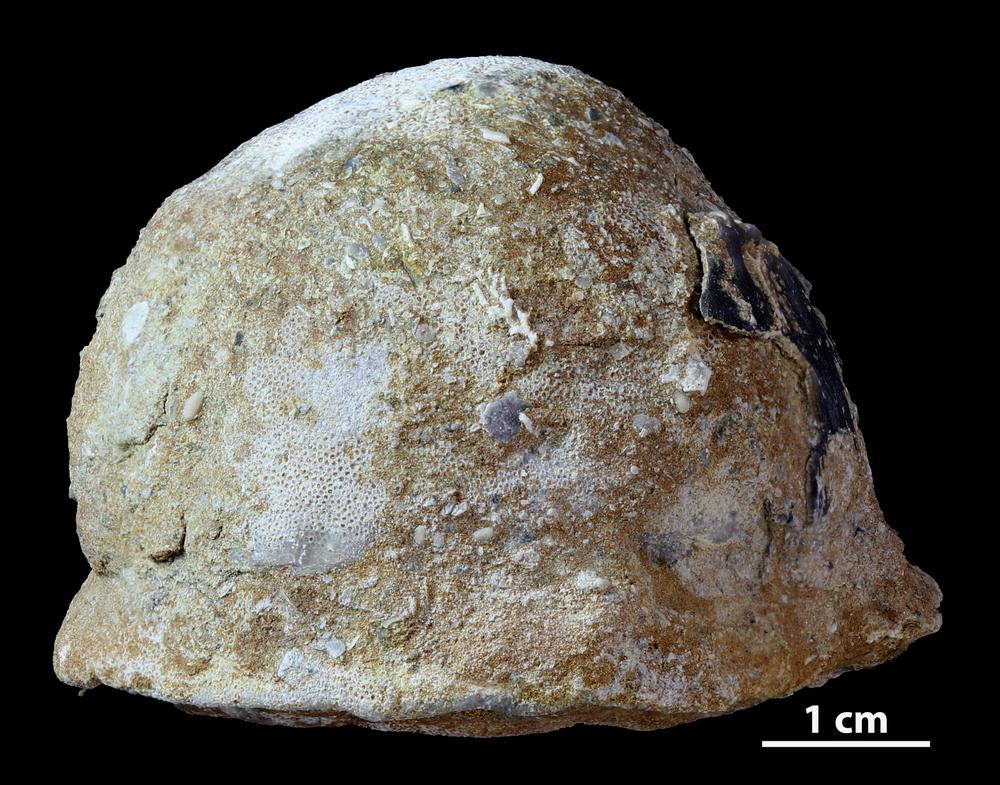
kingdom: Animalia
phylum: Bryozoa
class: Stenolaemata
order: Trepostomatida
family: Diplotrypidae
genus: Diplotrypa
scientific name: Diplotrypa petropolitana
